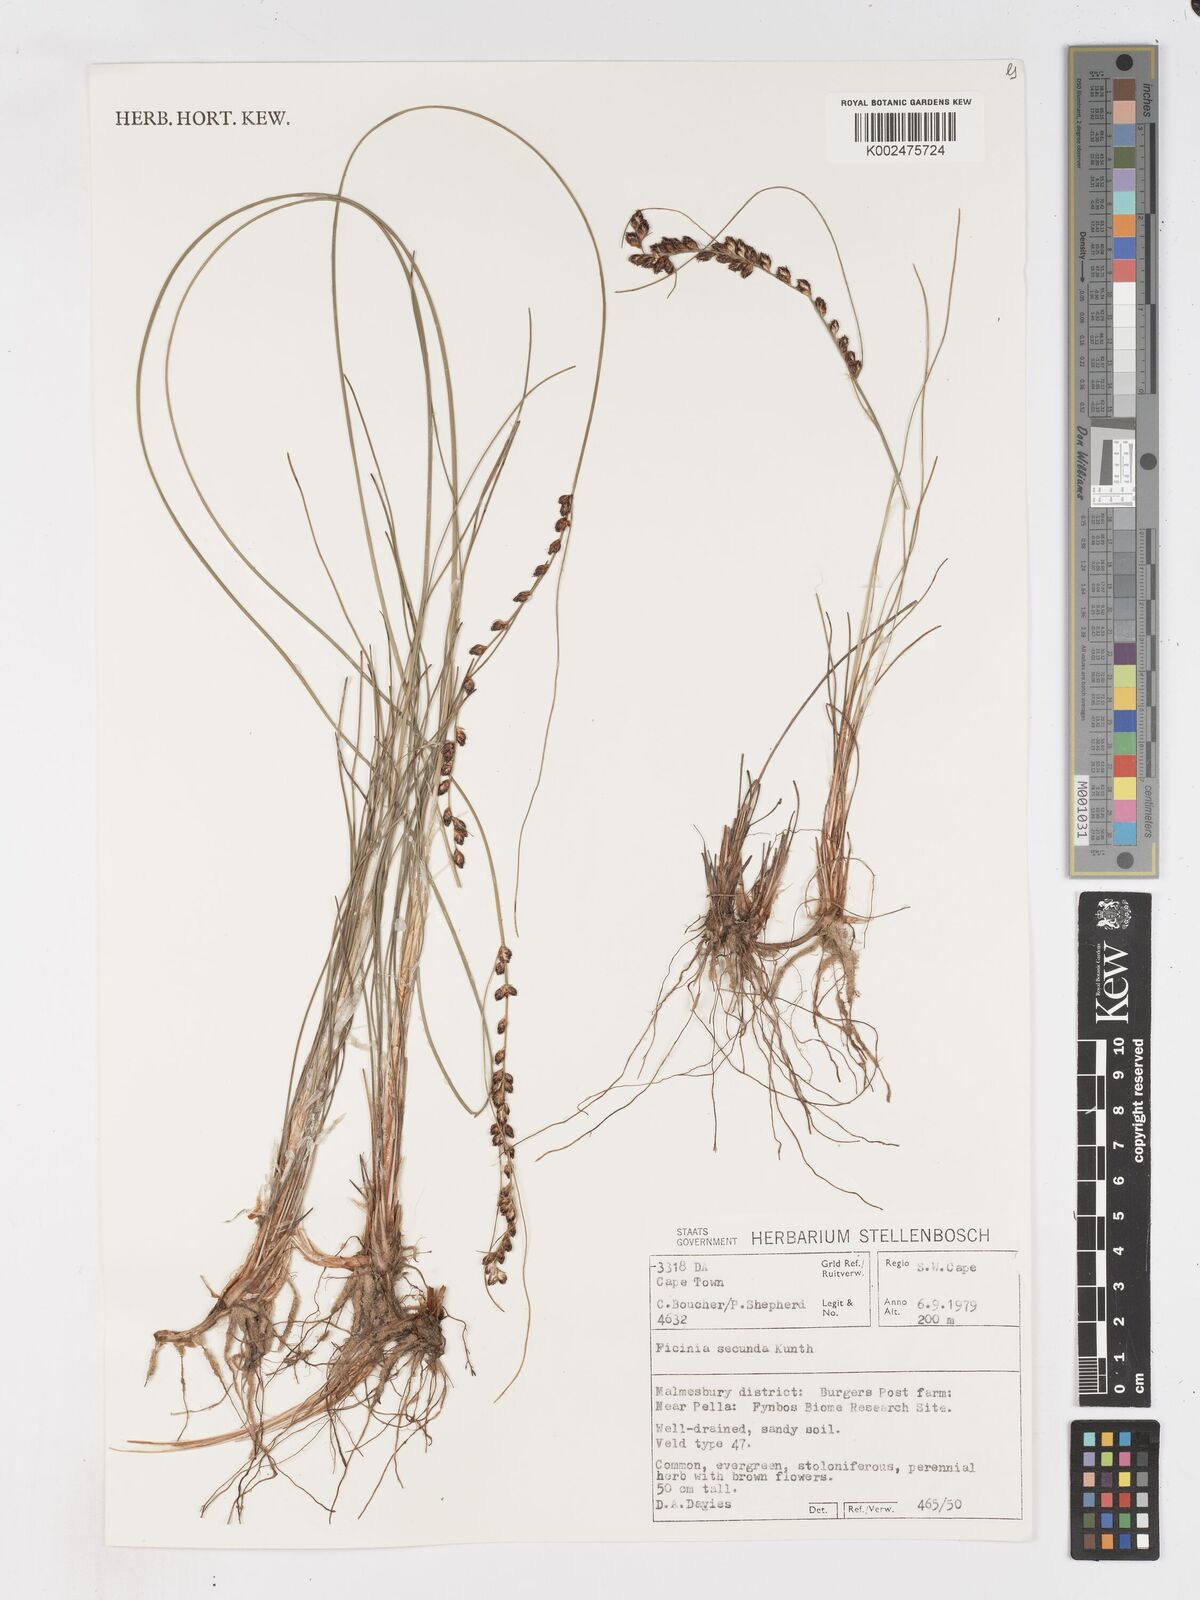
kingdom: Plantae
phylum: Tracheophyta
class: Liliopsida
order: Poales
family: Cyperaceae
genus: Ficinia
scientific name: Ficinia secunda
